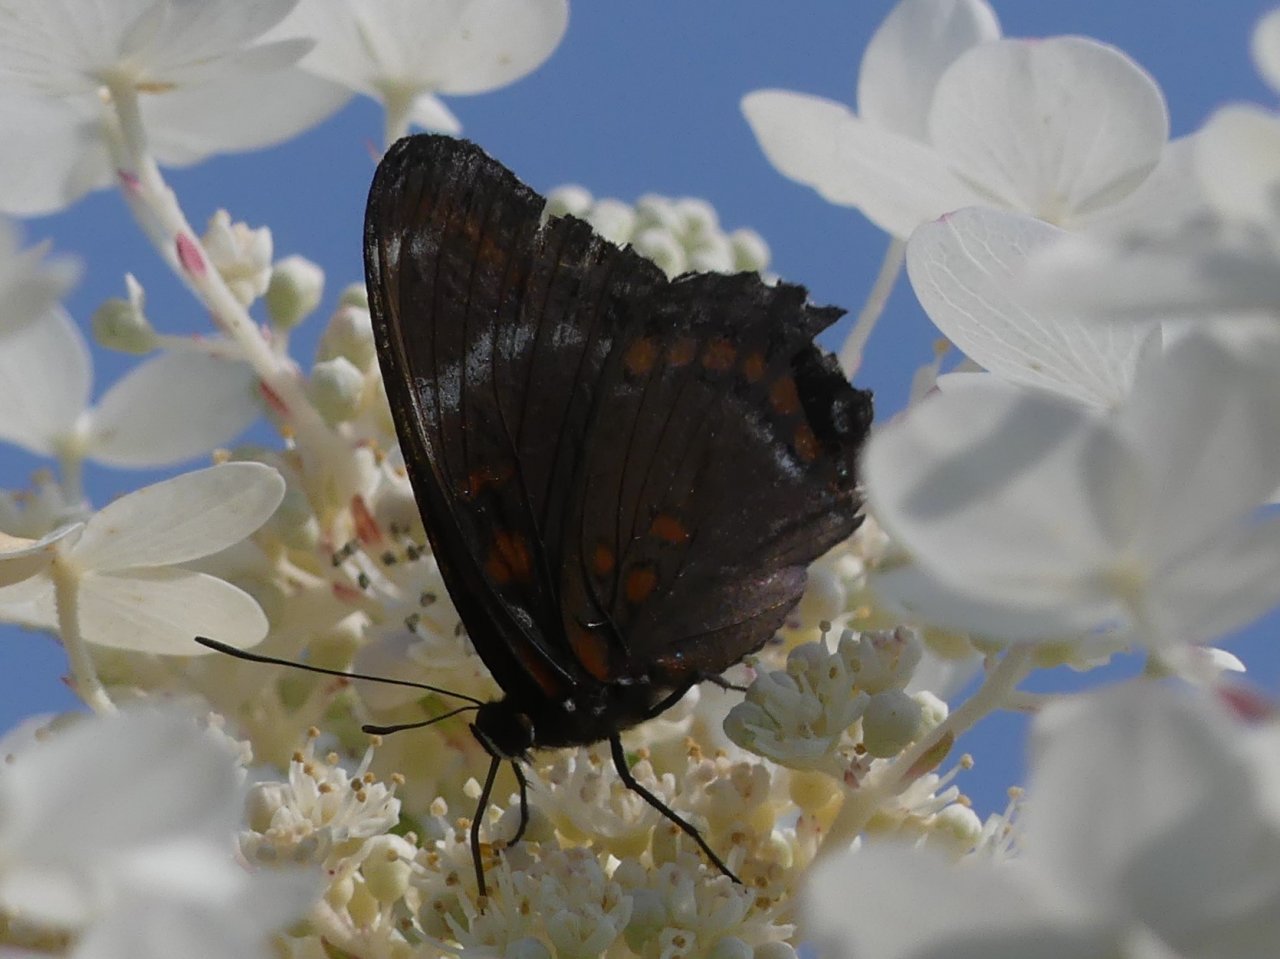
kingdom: Animalia
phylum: Arthropoda
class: Insecta
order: Lepidoptera
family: Nymphalidae
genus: Limenitis
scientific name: Limenitis
